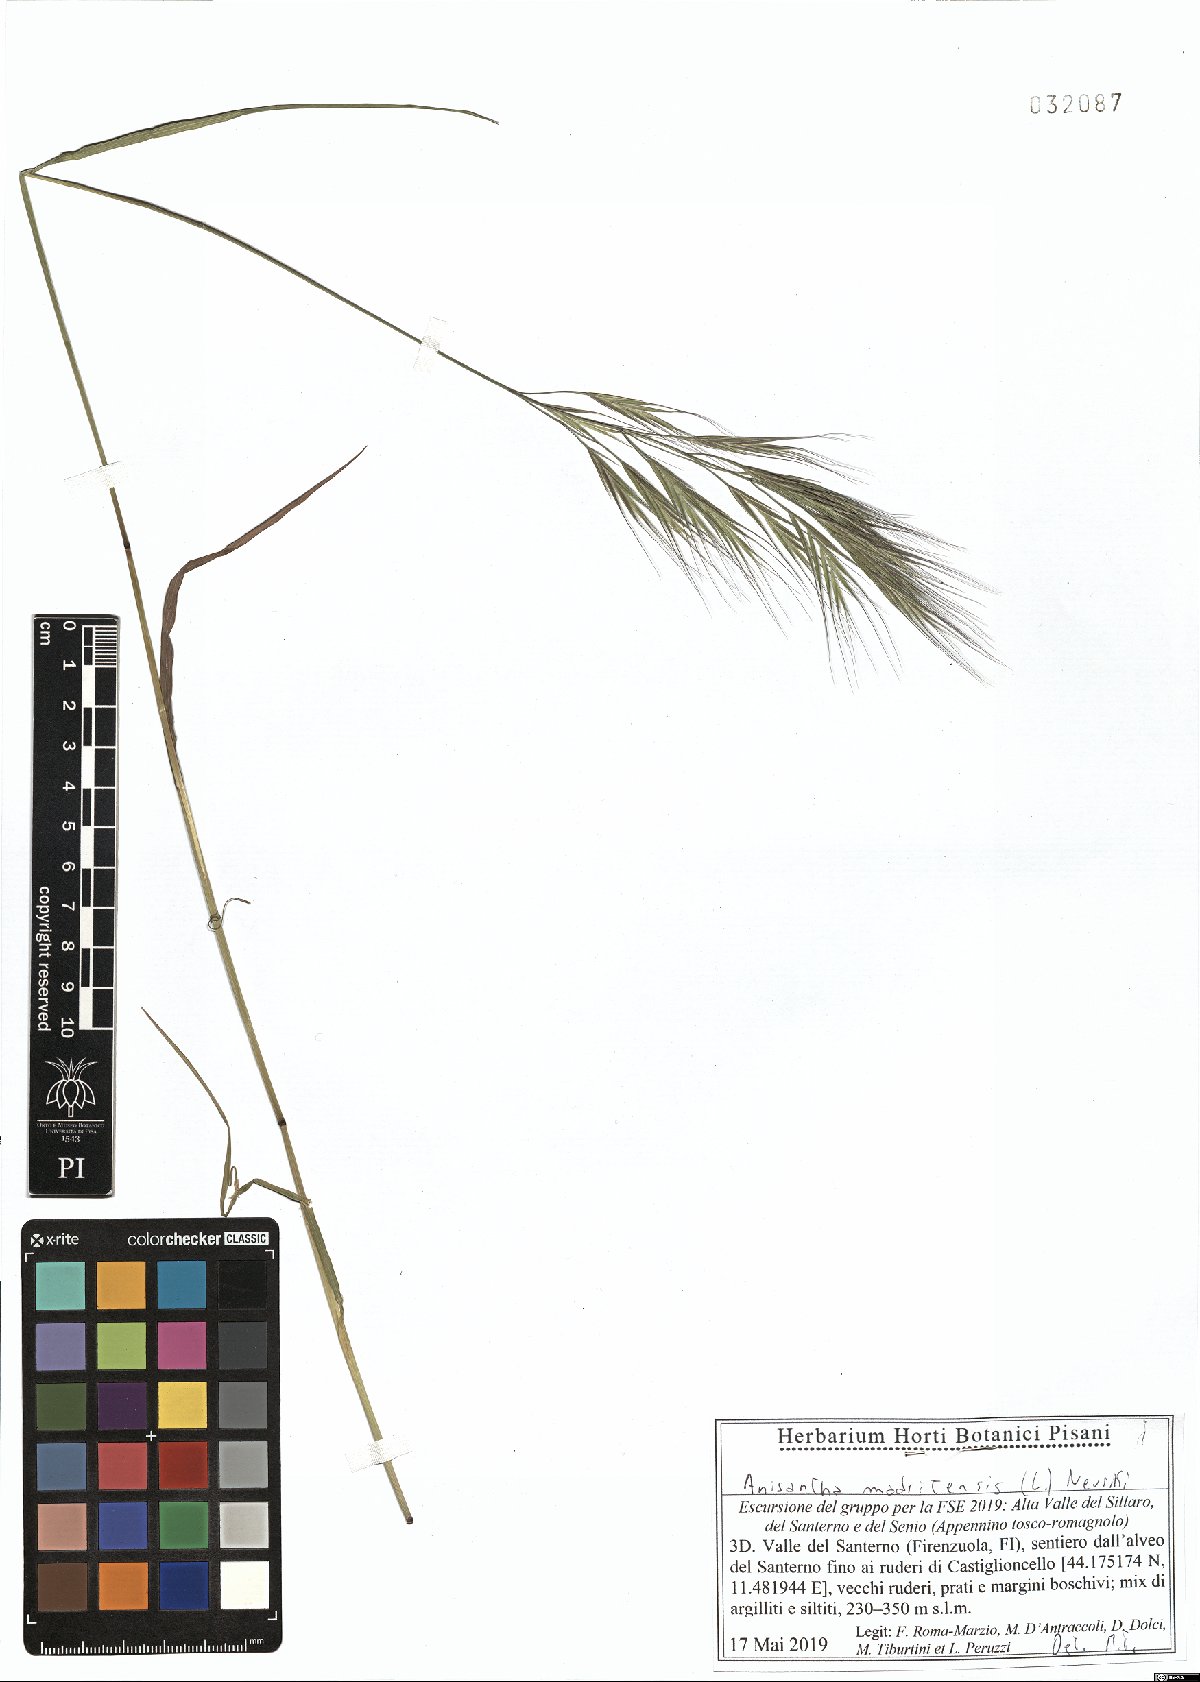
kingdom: Plantae
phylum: Tracheophyta
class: Liliopsida
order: Poales
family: Poaceae
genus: Bromus
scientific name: Bromus madritensis
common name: Compact brome
